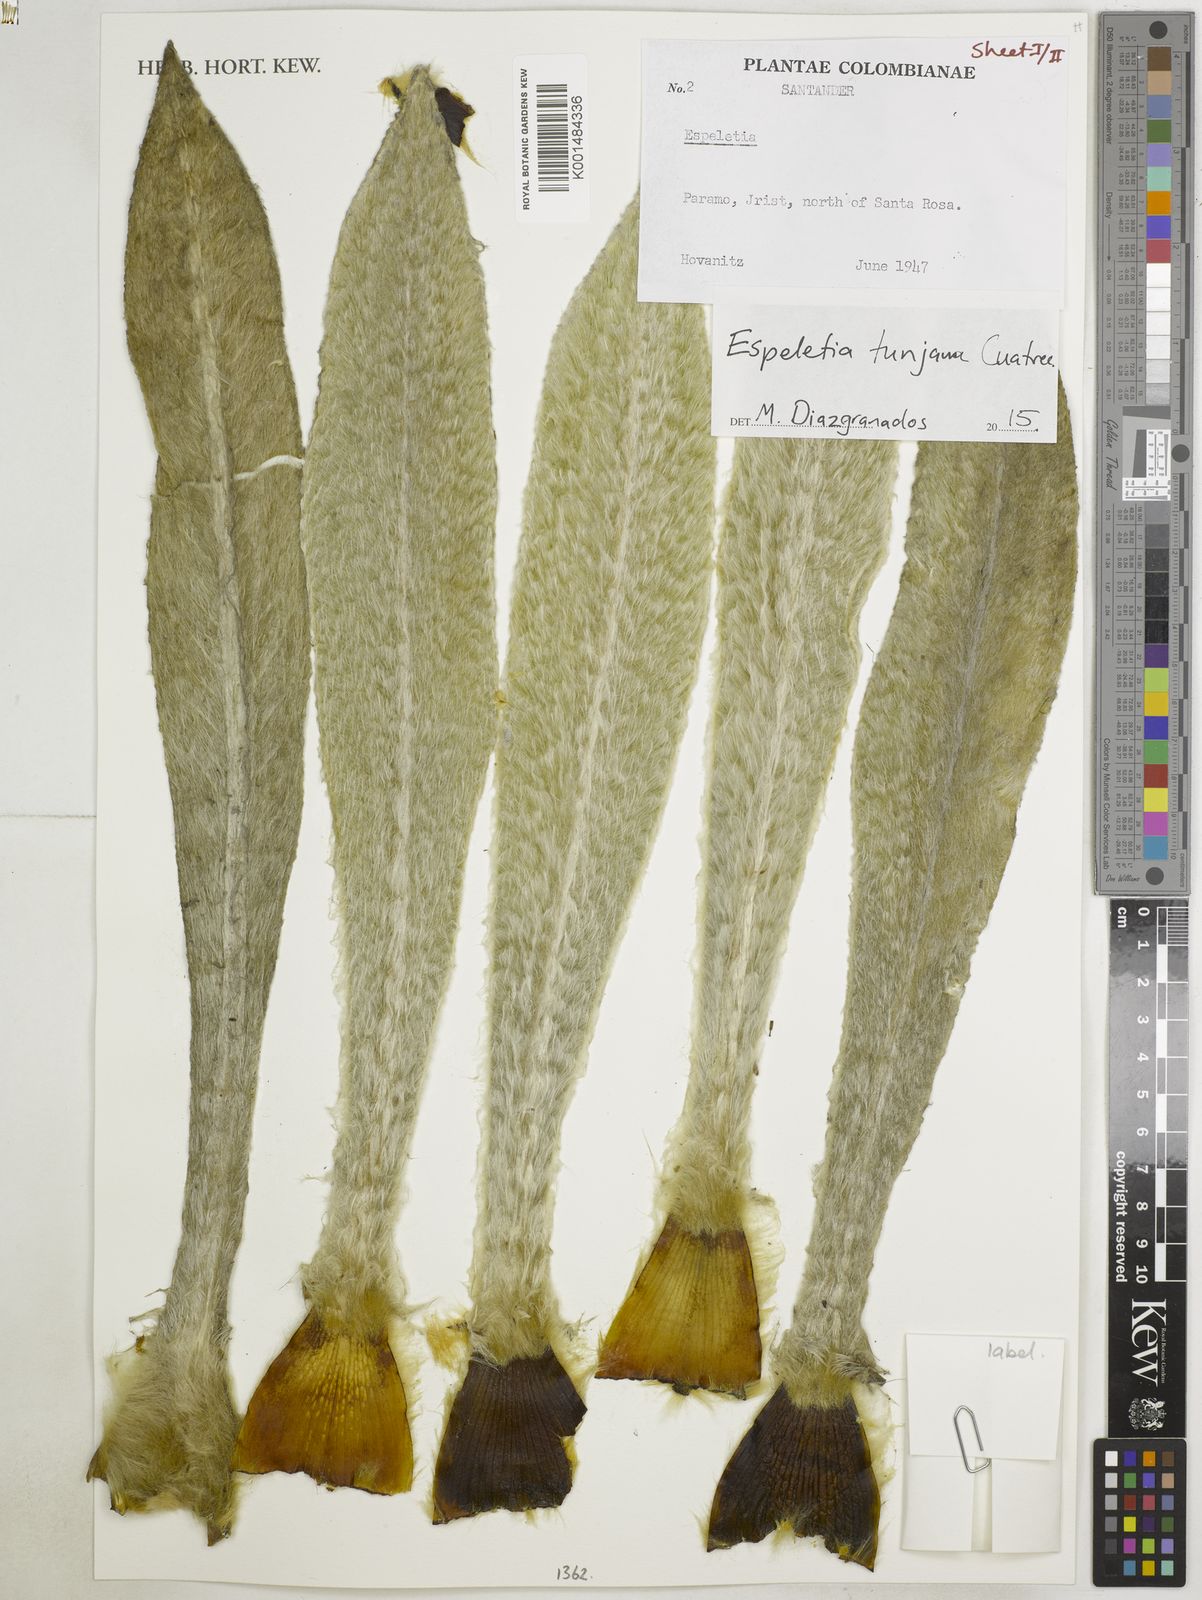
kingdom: Plantae
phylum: Tracheophyta
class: Magnoliopsida
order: Asterales
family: Asteraceae
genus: Espeletia
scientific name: Espeletia tunjana
